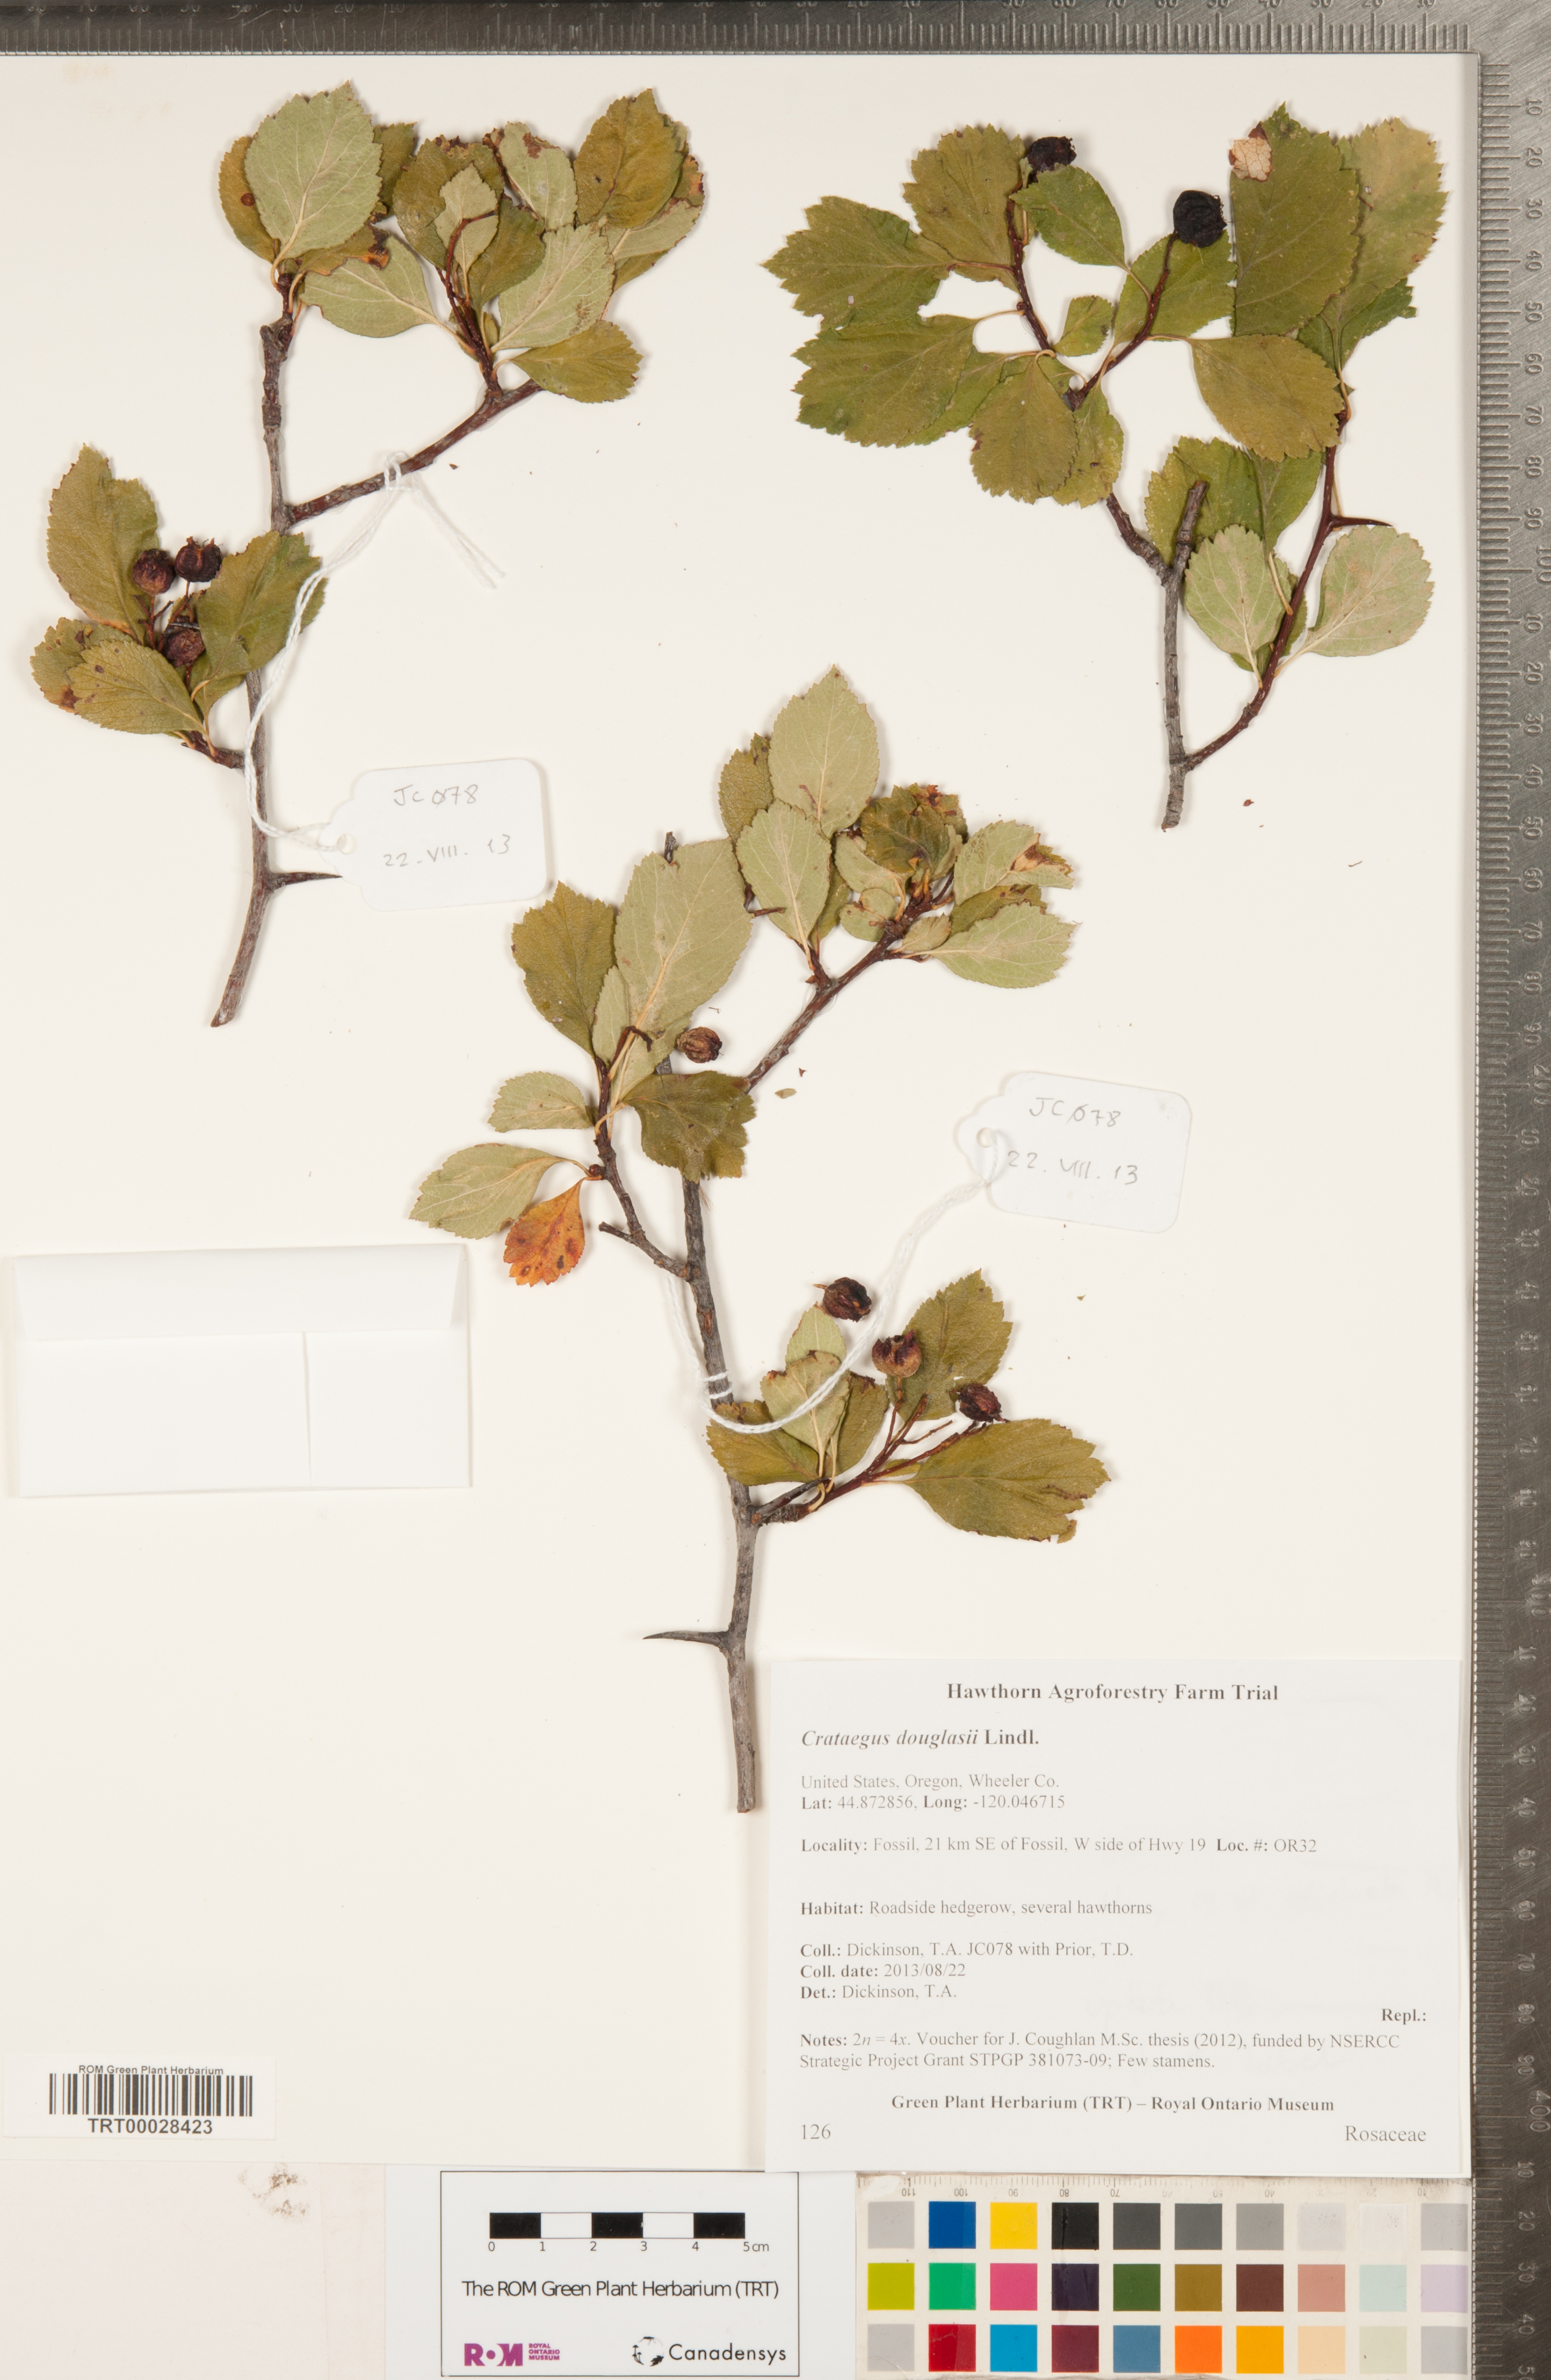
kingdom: Plantae
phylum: Tracheophyta
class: Magnoliopsida
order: Rosales
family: Rosaceae
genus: Crataegus
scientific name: Crataegus douglasii
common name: Black hawthorn
